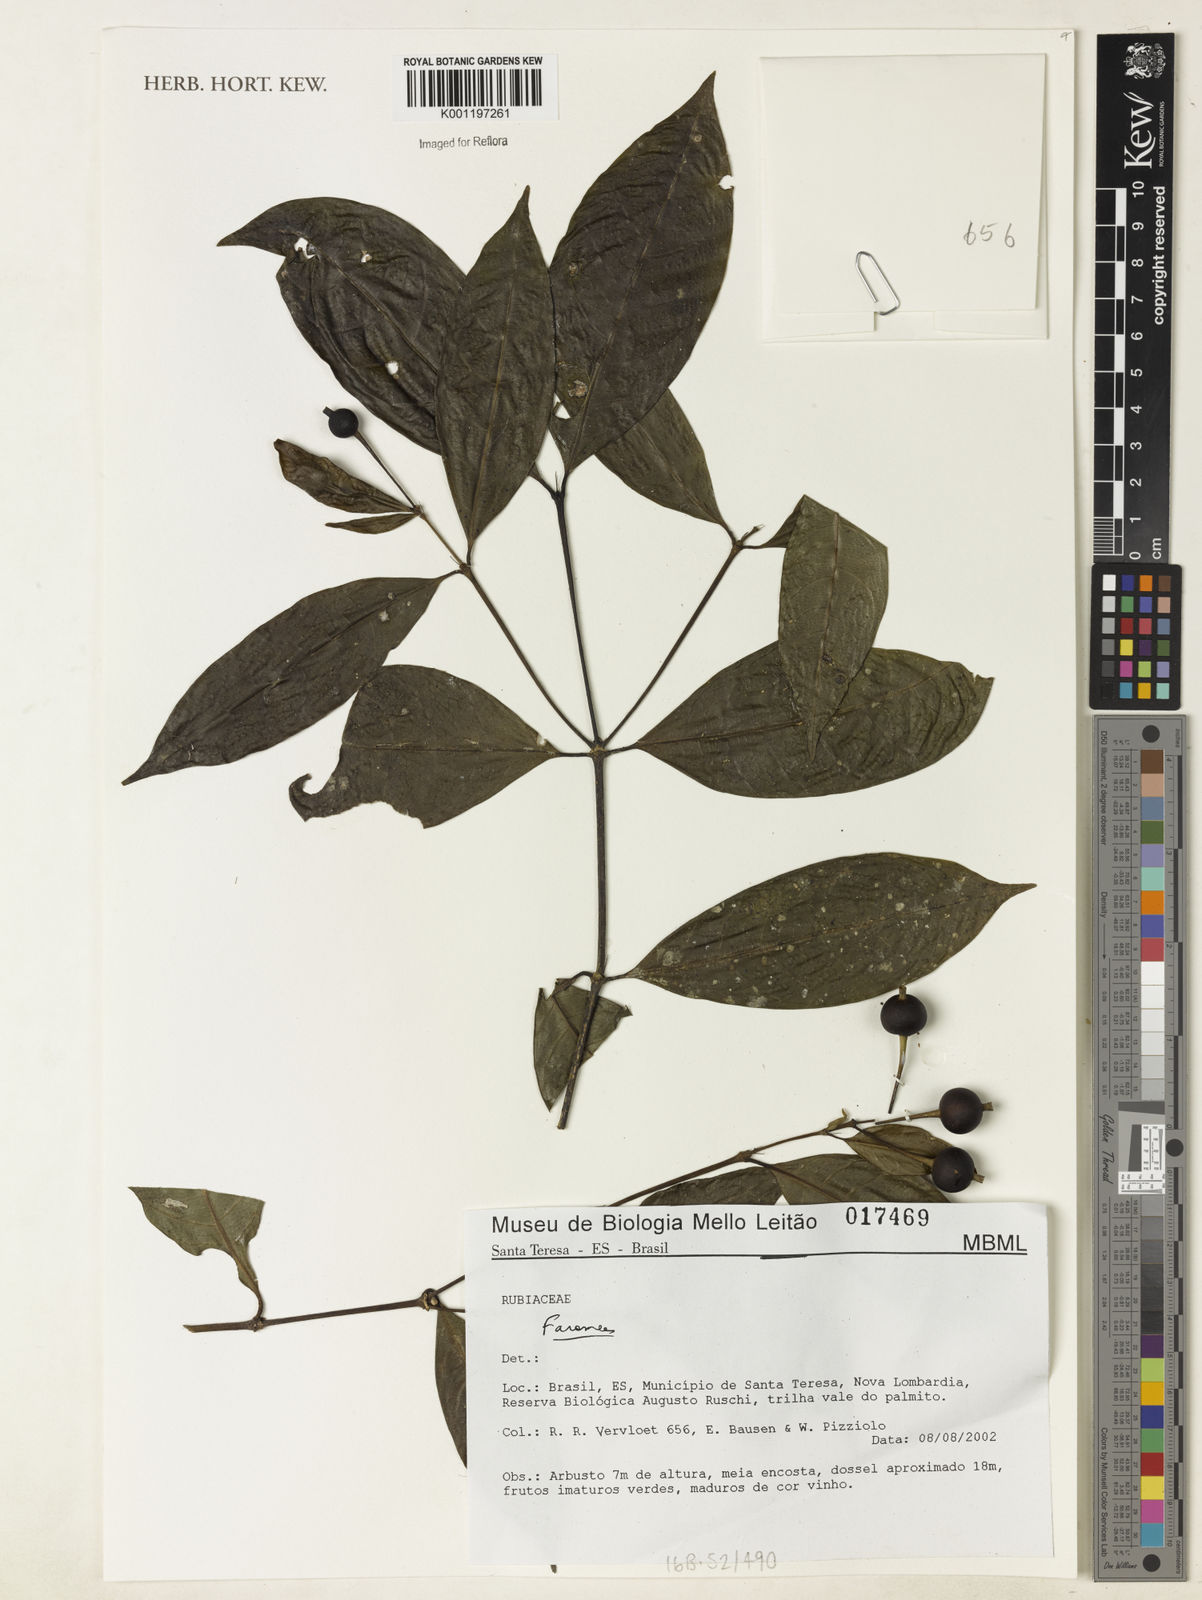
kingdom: Plantae
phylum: Tracheophyta
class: Magnoliopsida
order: Gentianales
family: Rubiaceae
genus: Faramea
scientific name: Faramea
